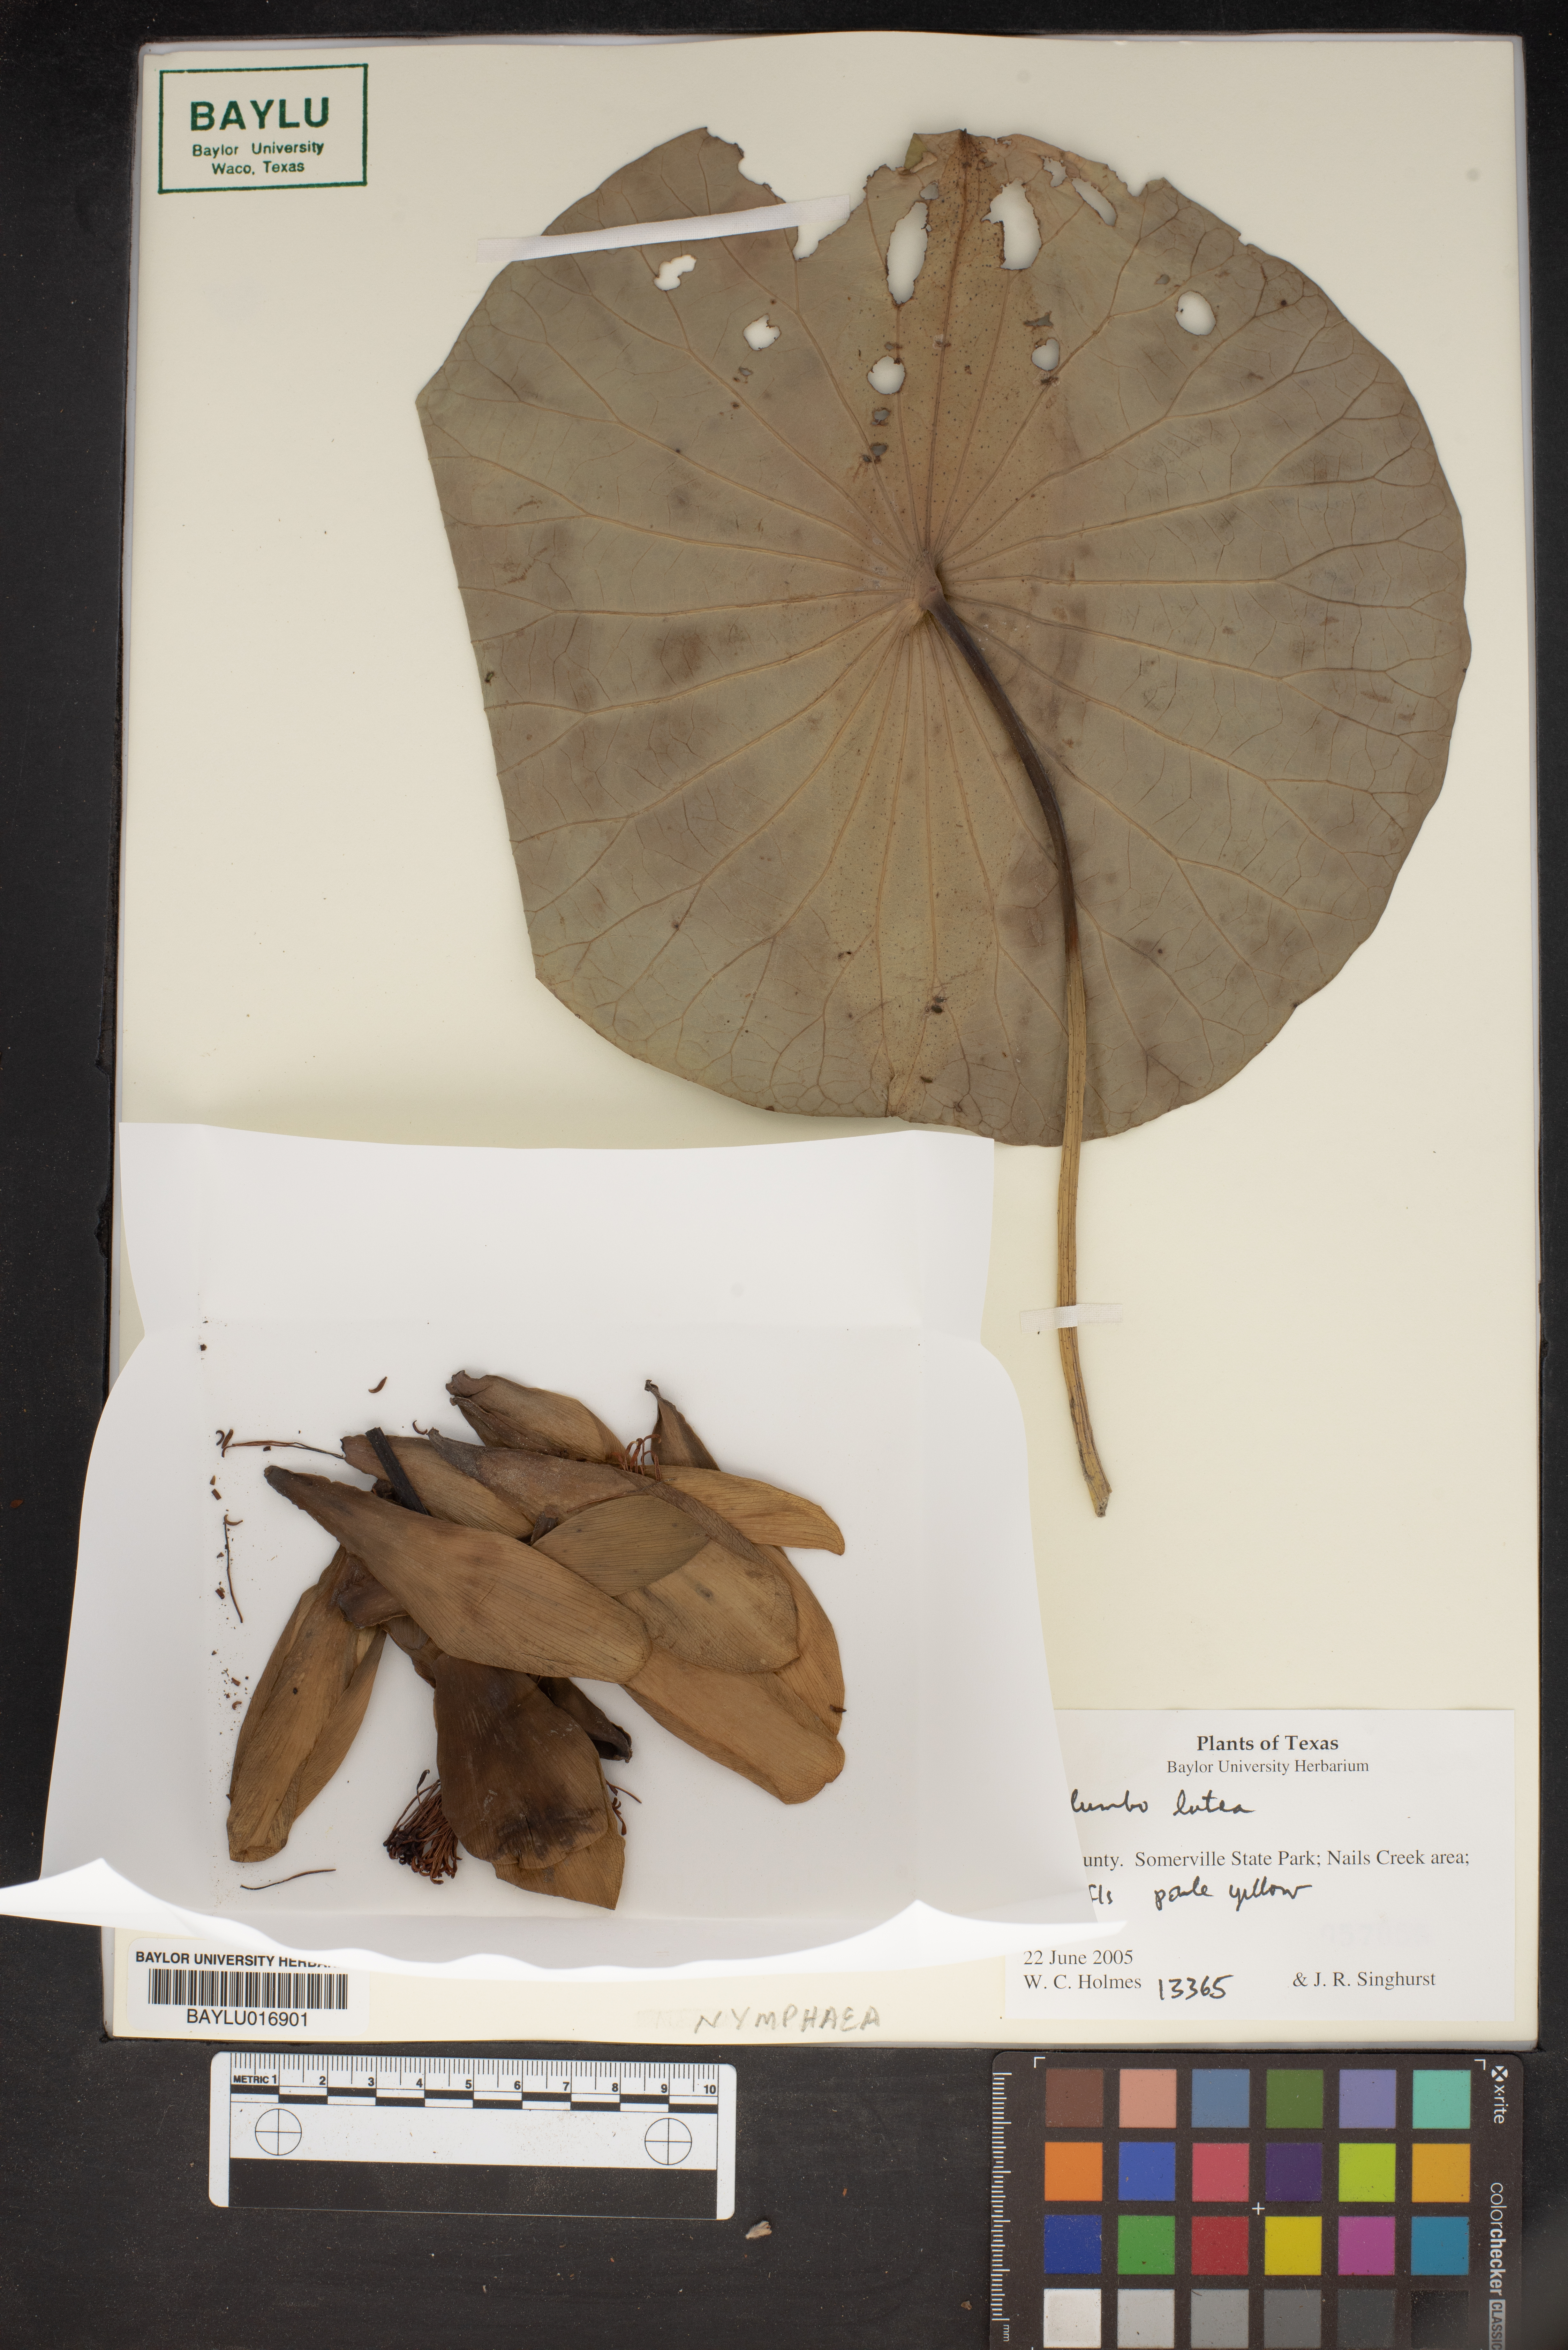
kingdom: Plantae
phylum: Tracheophyta
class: Magnoliopsida
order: Proteales
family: Nelumbonaceae
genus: Nelumbo
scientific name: Nelumbo lutea
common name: American lotus
